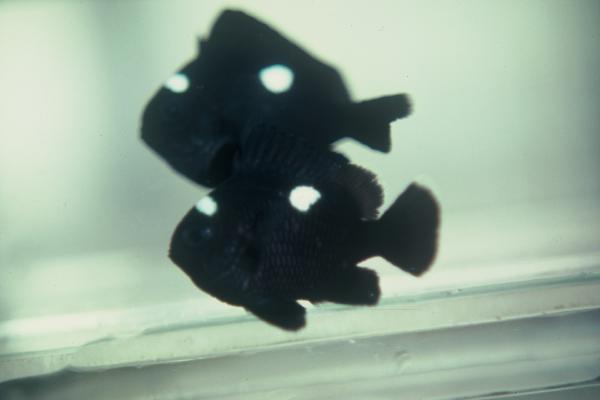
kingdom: Animalia
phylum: Chordata
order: Perciformes
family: Pomacentridae
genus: Dascyllus
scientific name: Dascyllus trimaculatus
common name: Threespot dascyllus
